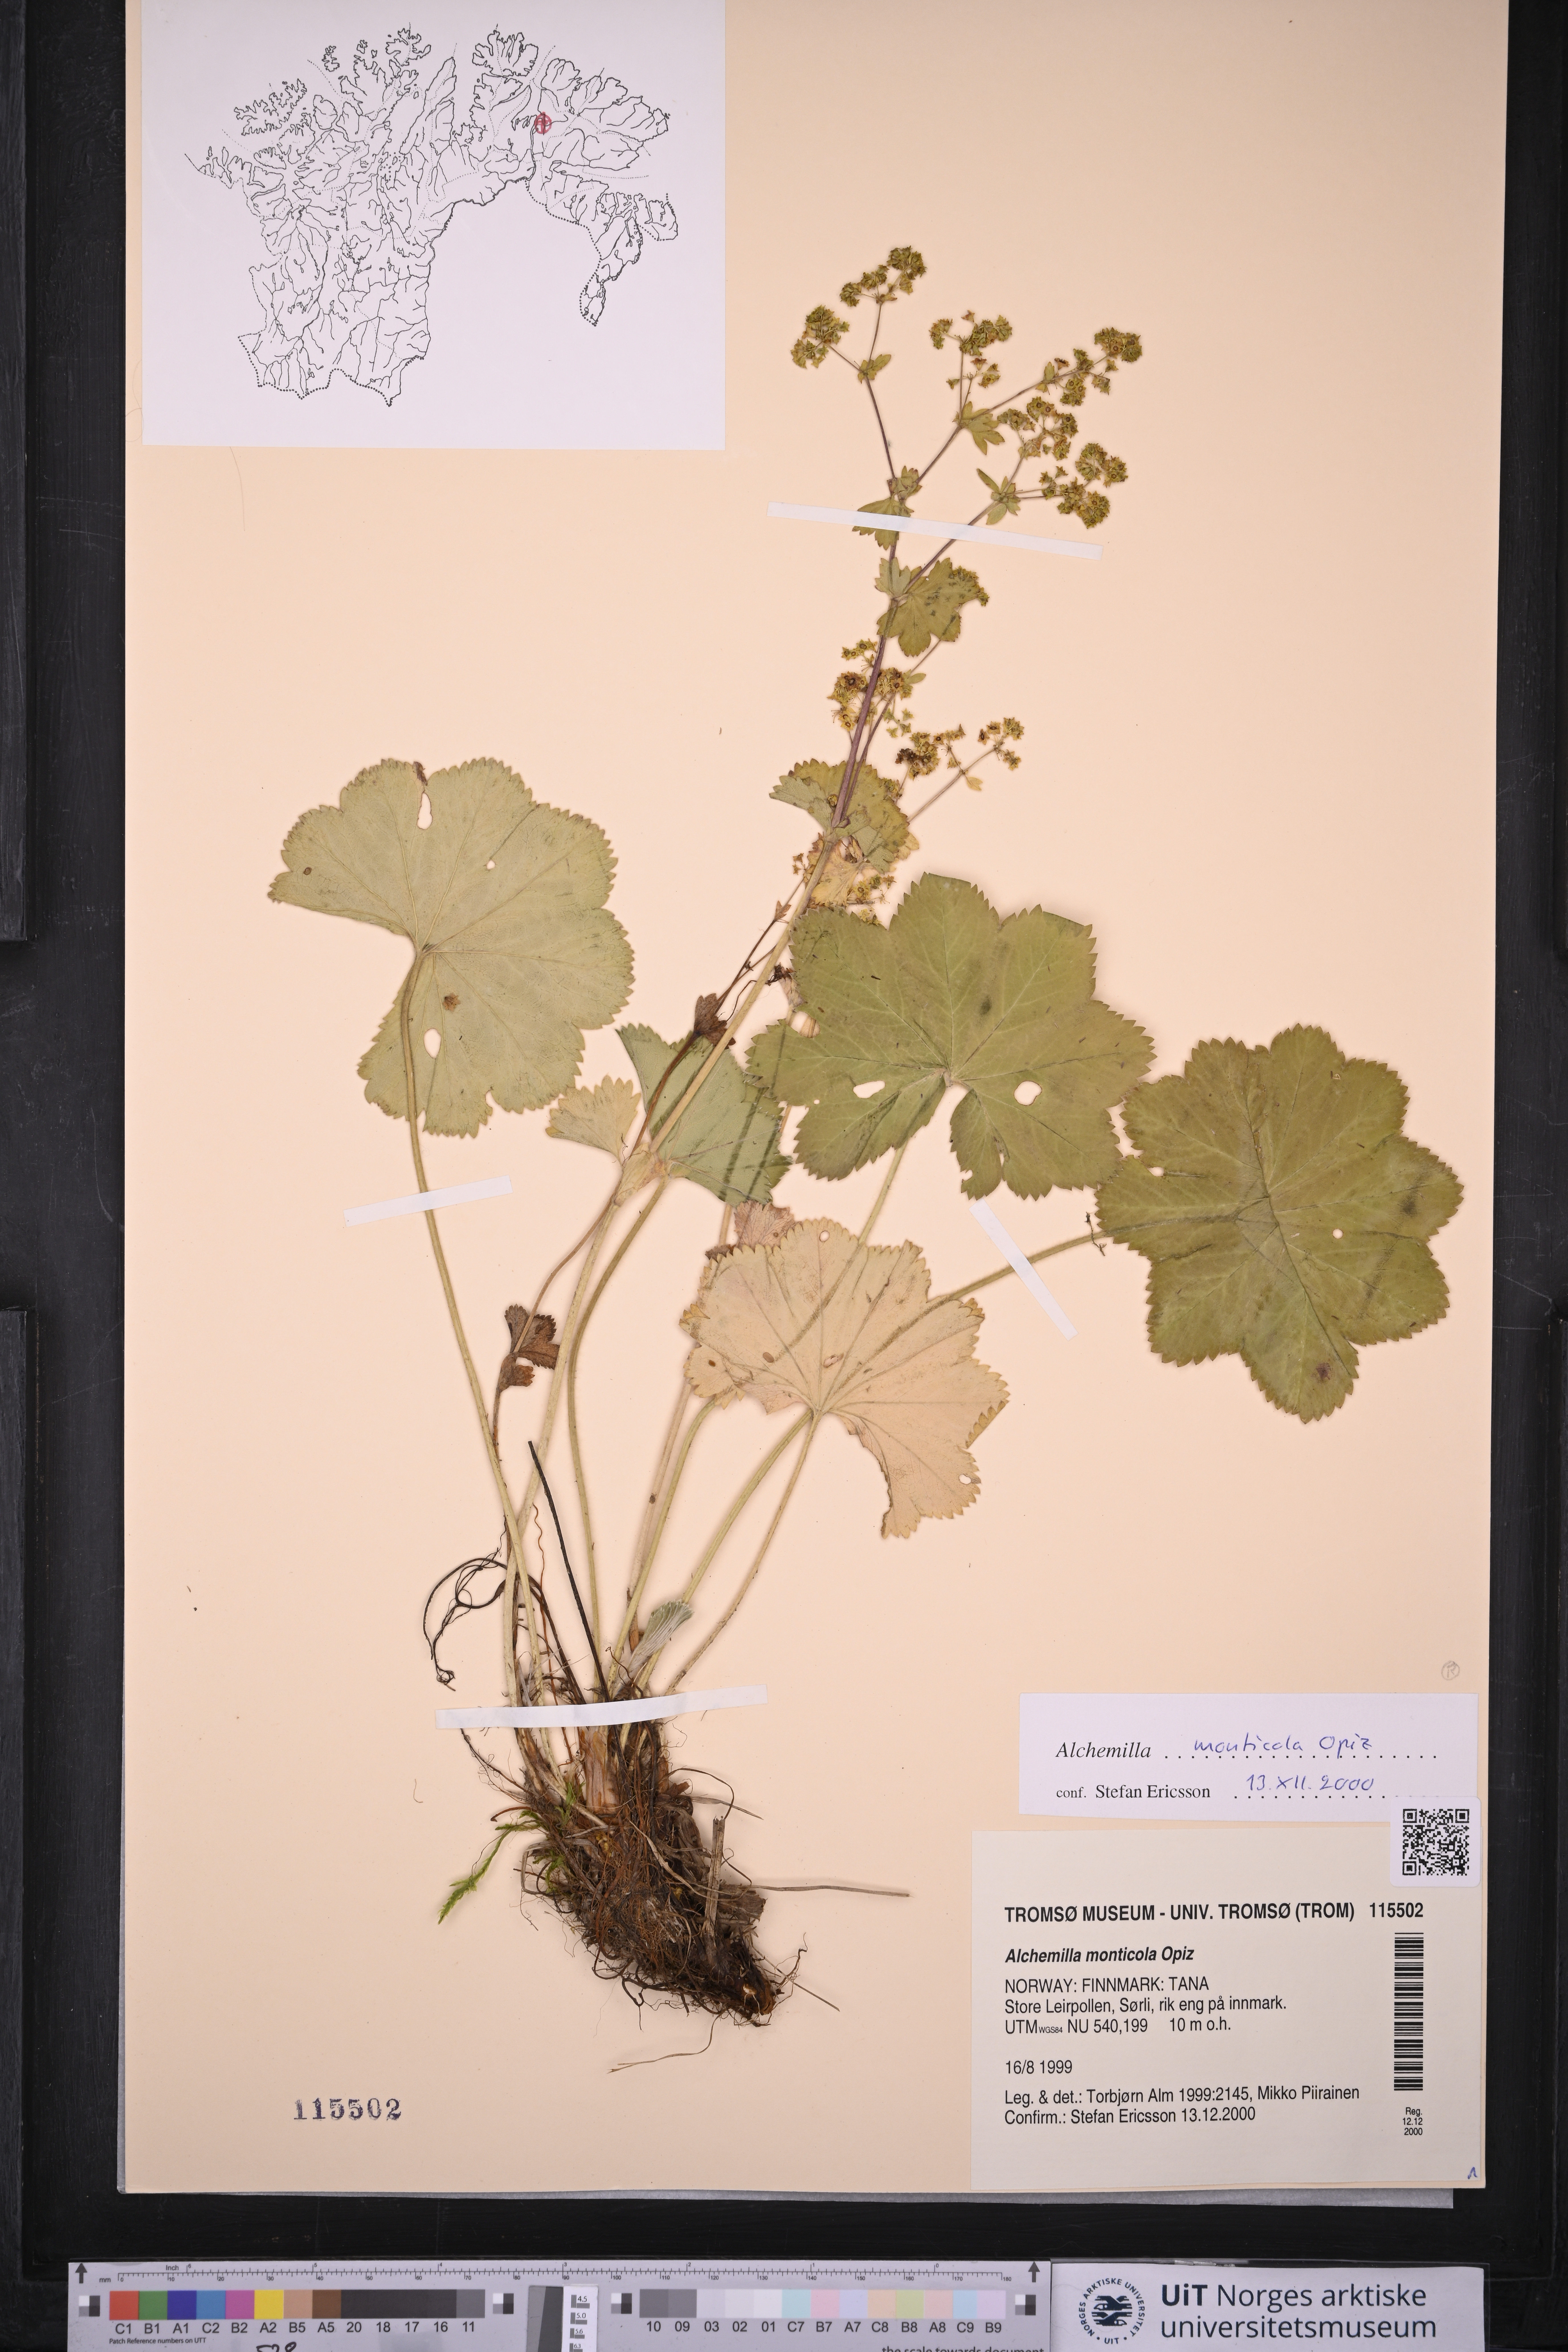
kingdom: Plantae
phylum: Tracheophyta
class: Magnoliopsida
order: Rosales
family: Rosaceae
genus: Alchemilla
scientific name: Alchemilla monticola
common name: Hairy lady's mantle
